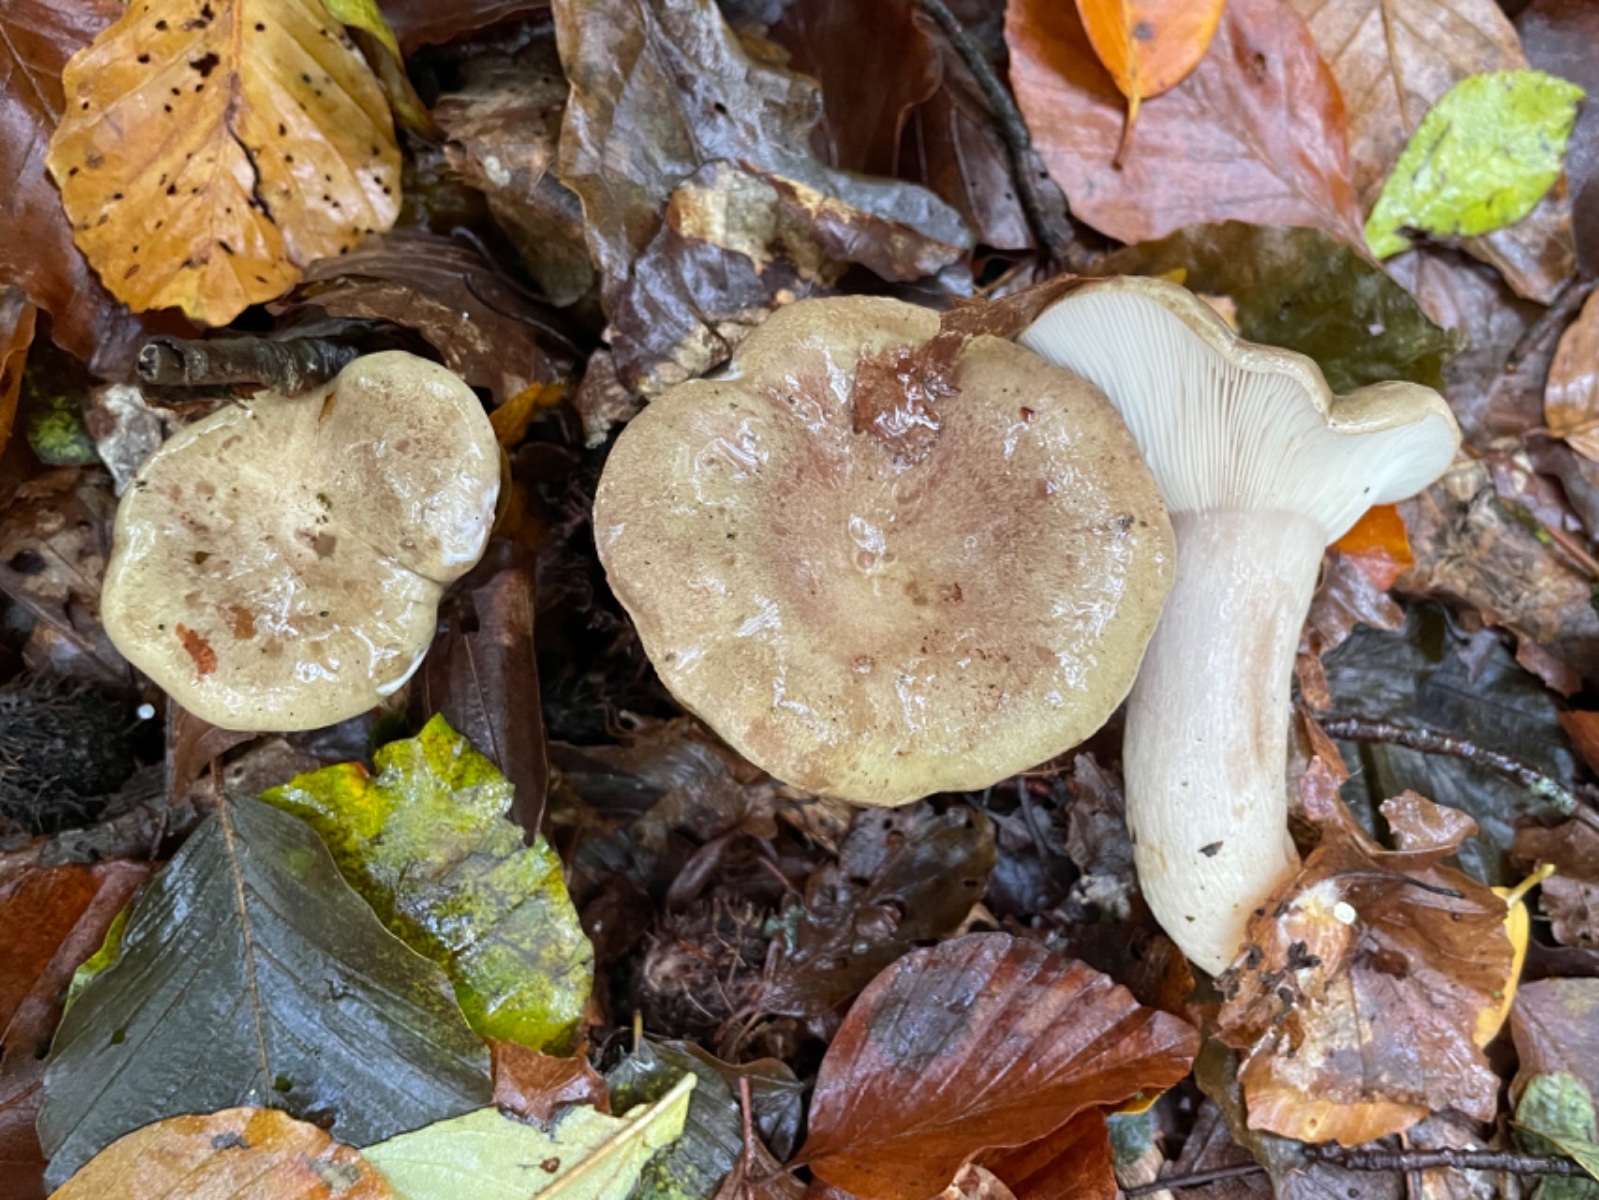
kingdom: Fungi
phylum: Basidiomycota
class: Agaricomycetes
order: Russulales
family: Russulaceae
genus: Lactarius
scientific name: Lactarius blennius
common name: dråbeplettet mælkehat
